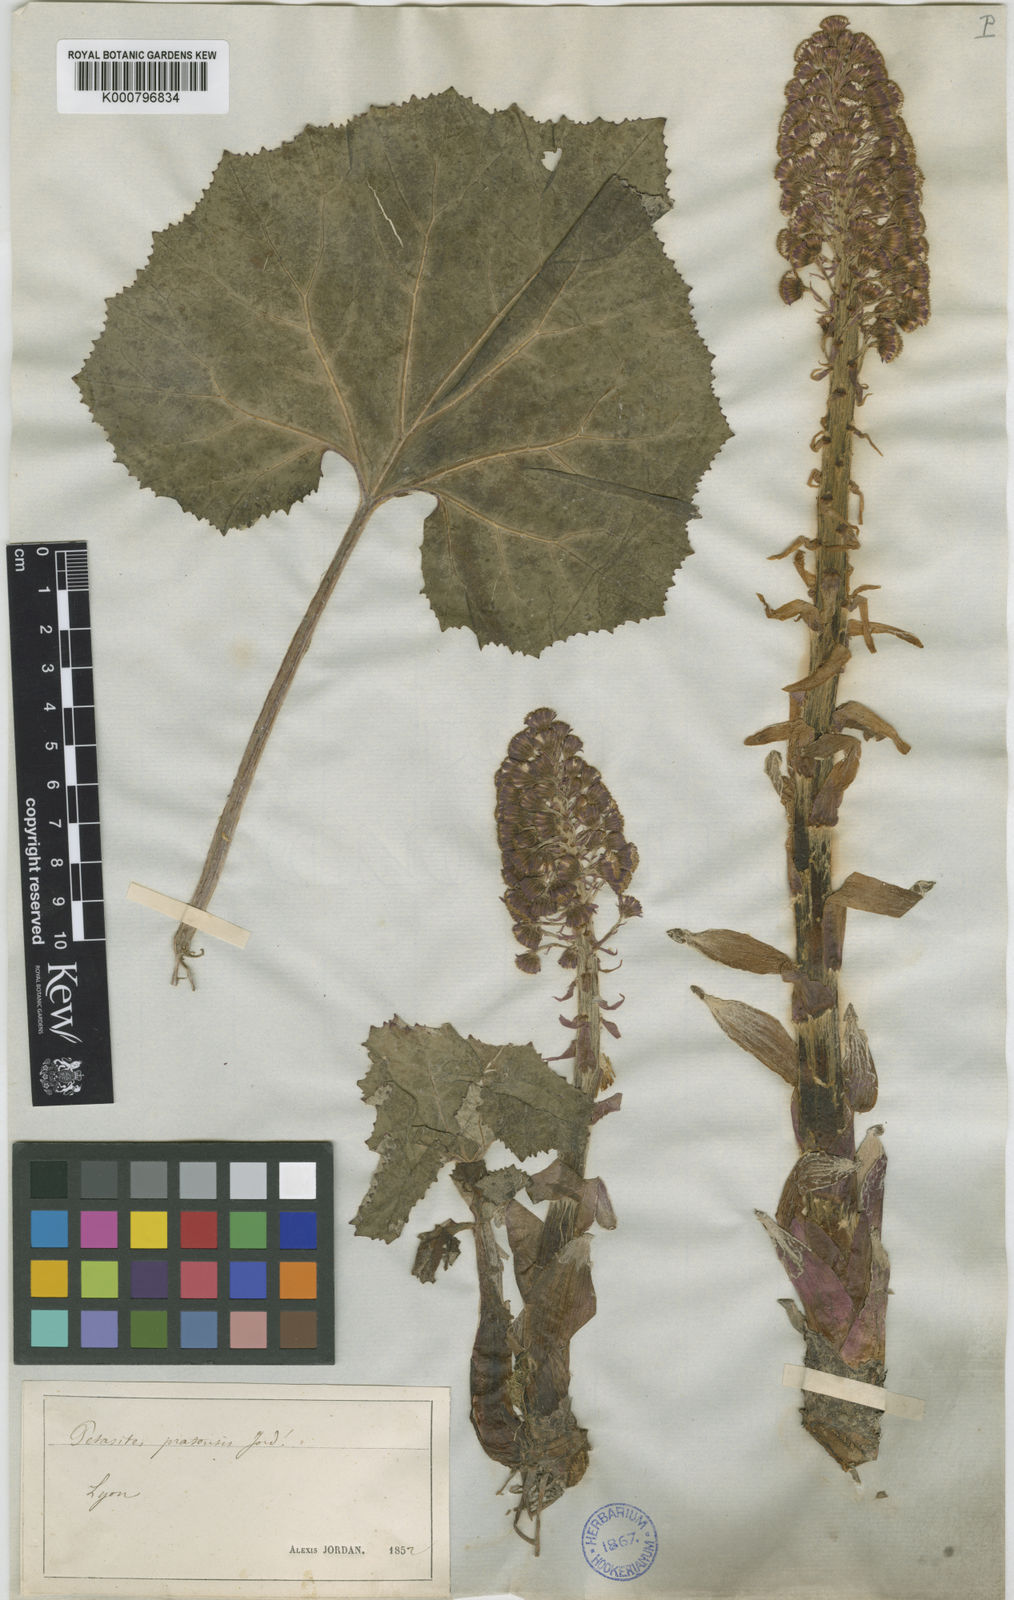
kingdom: Plantae
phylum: Tracheophyta
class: Magnoliopsida
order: Asterales
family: Asteraceae
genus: Petasites
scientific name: Petasites
